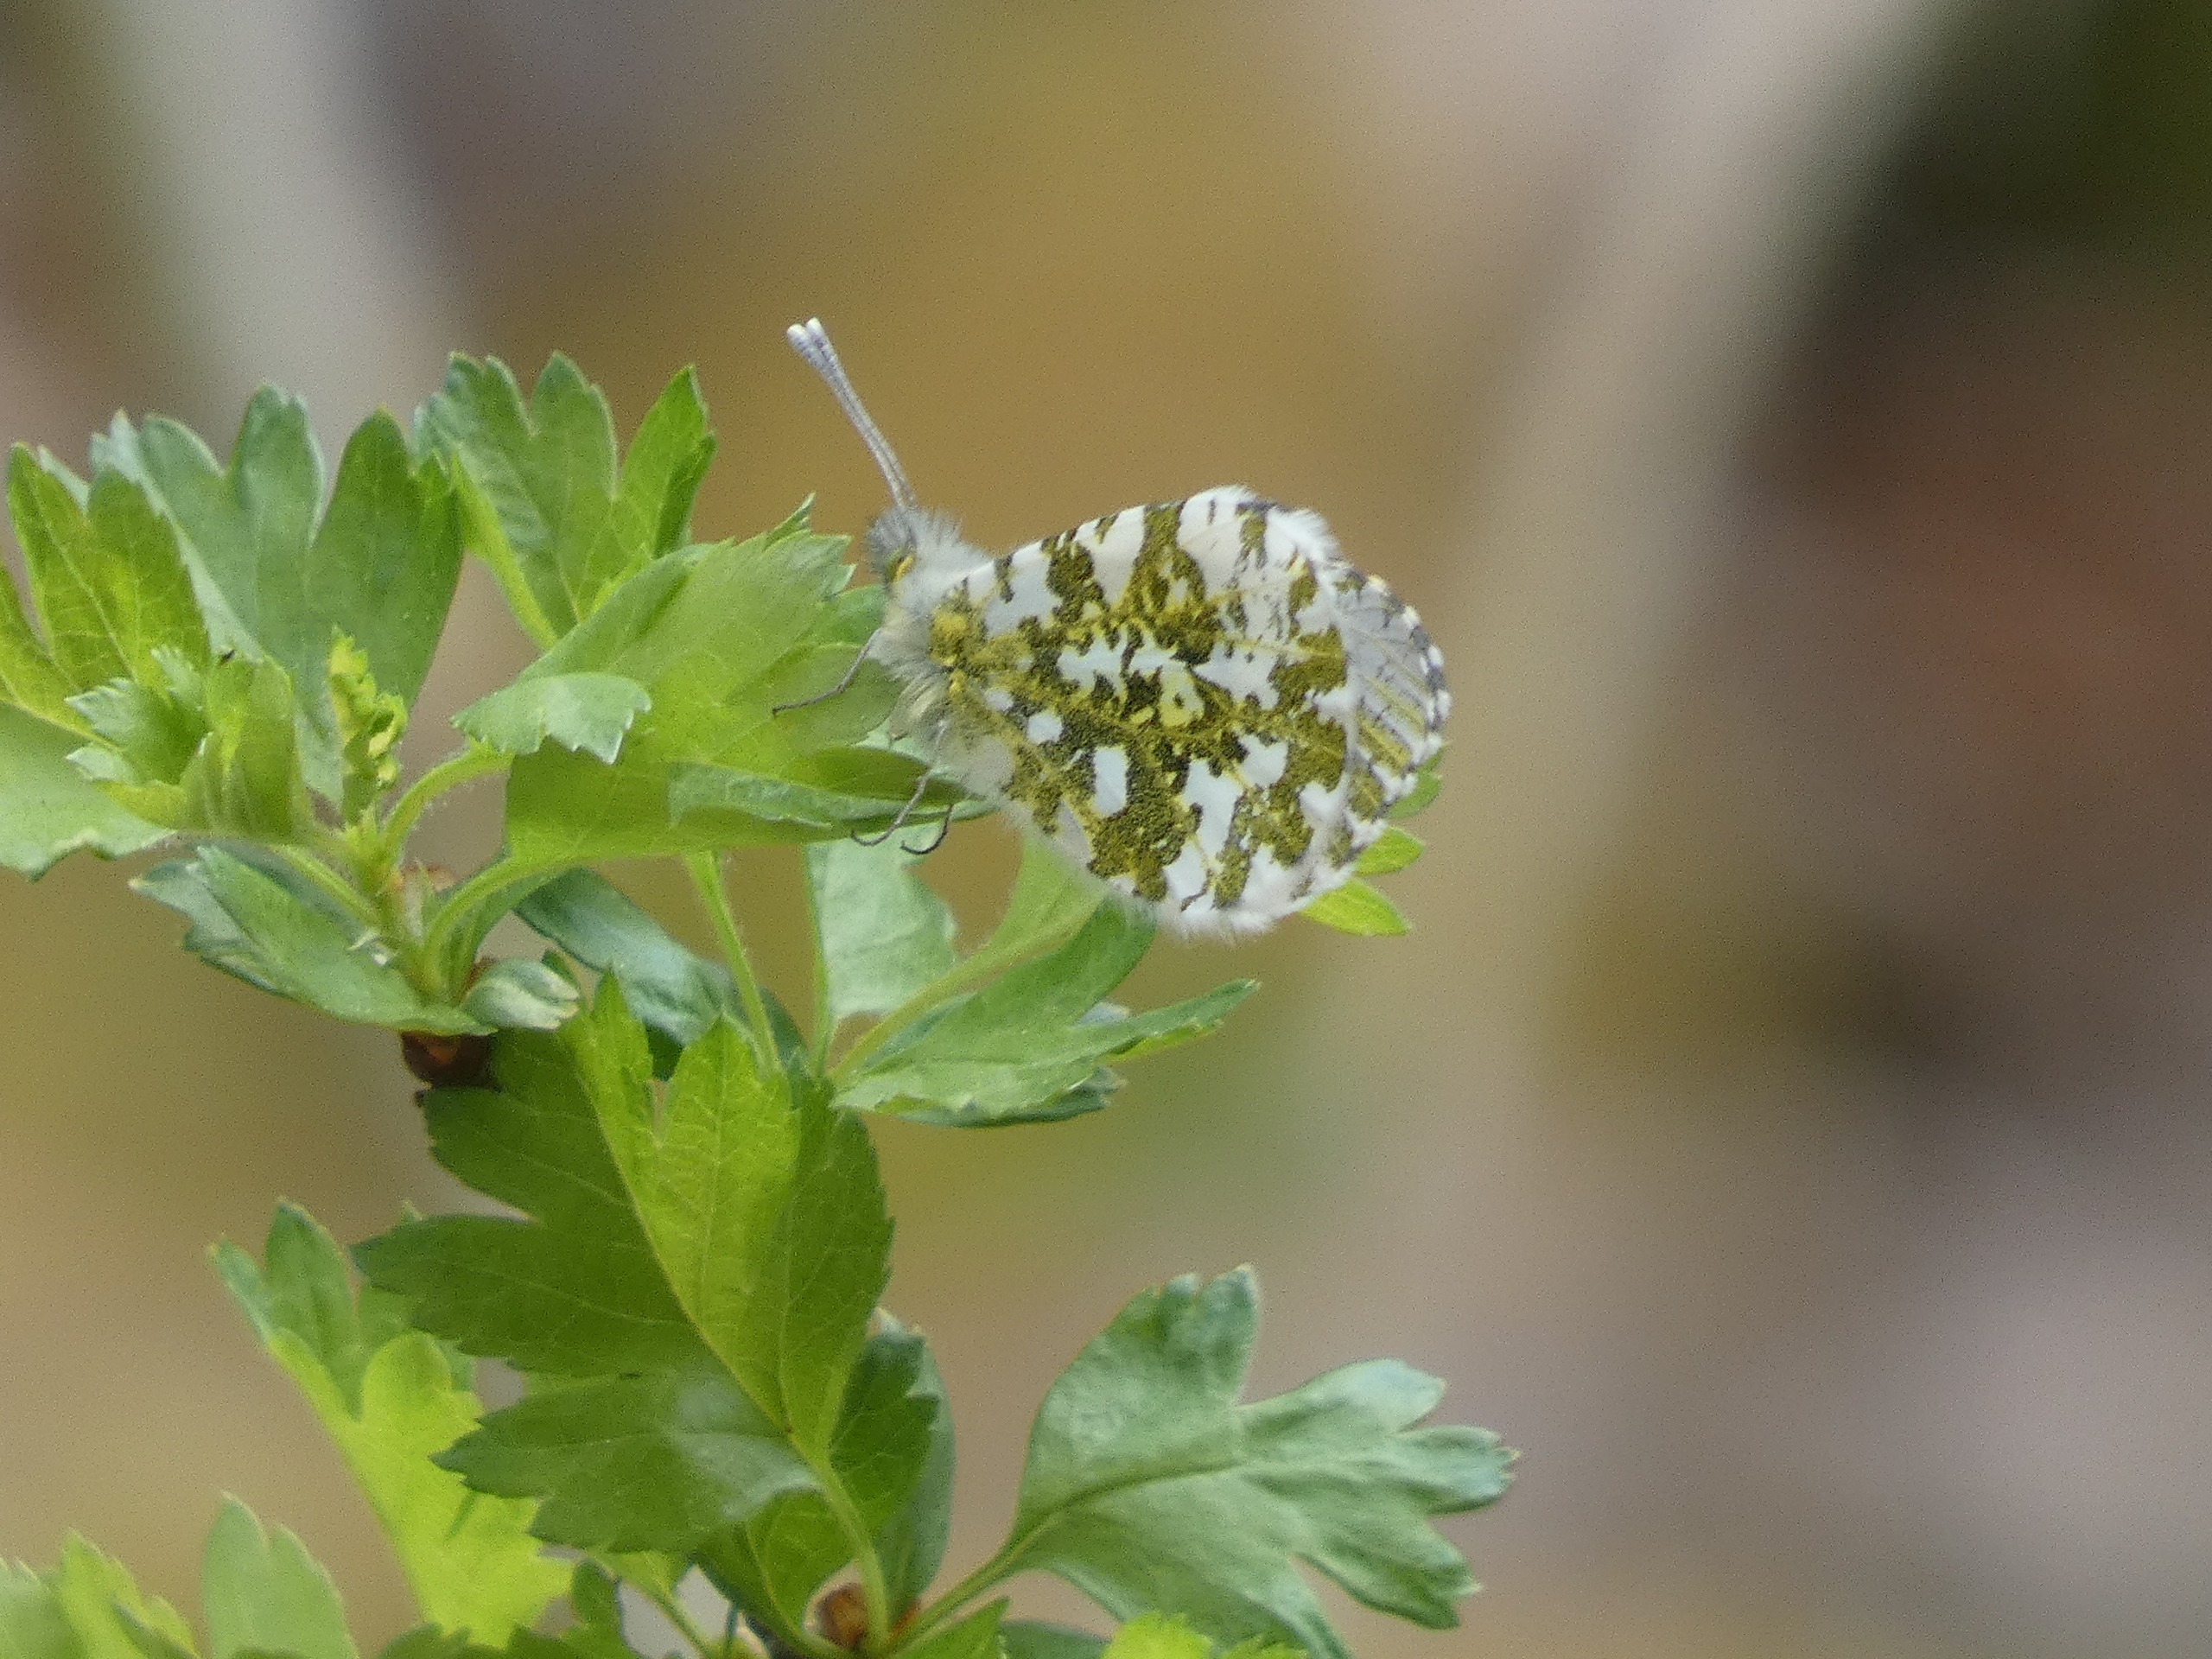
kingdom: Animalia
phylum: Arthropoda
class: Insecta
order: Lepidoptera
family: Pieridae
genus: Anthocharis
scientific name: Anthocharis cardamines
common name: Aurora
